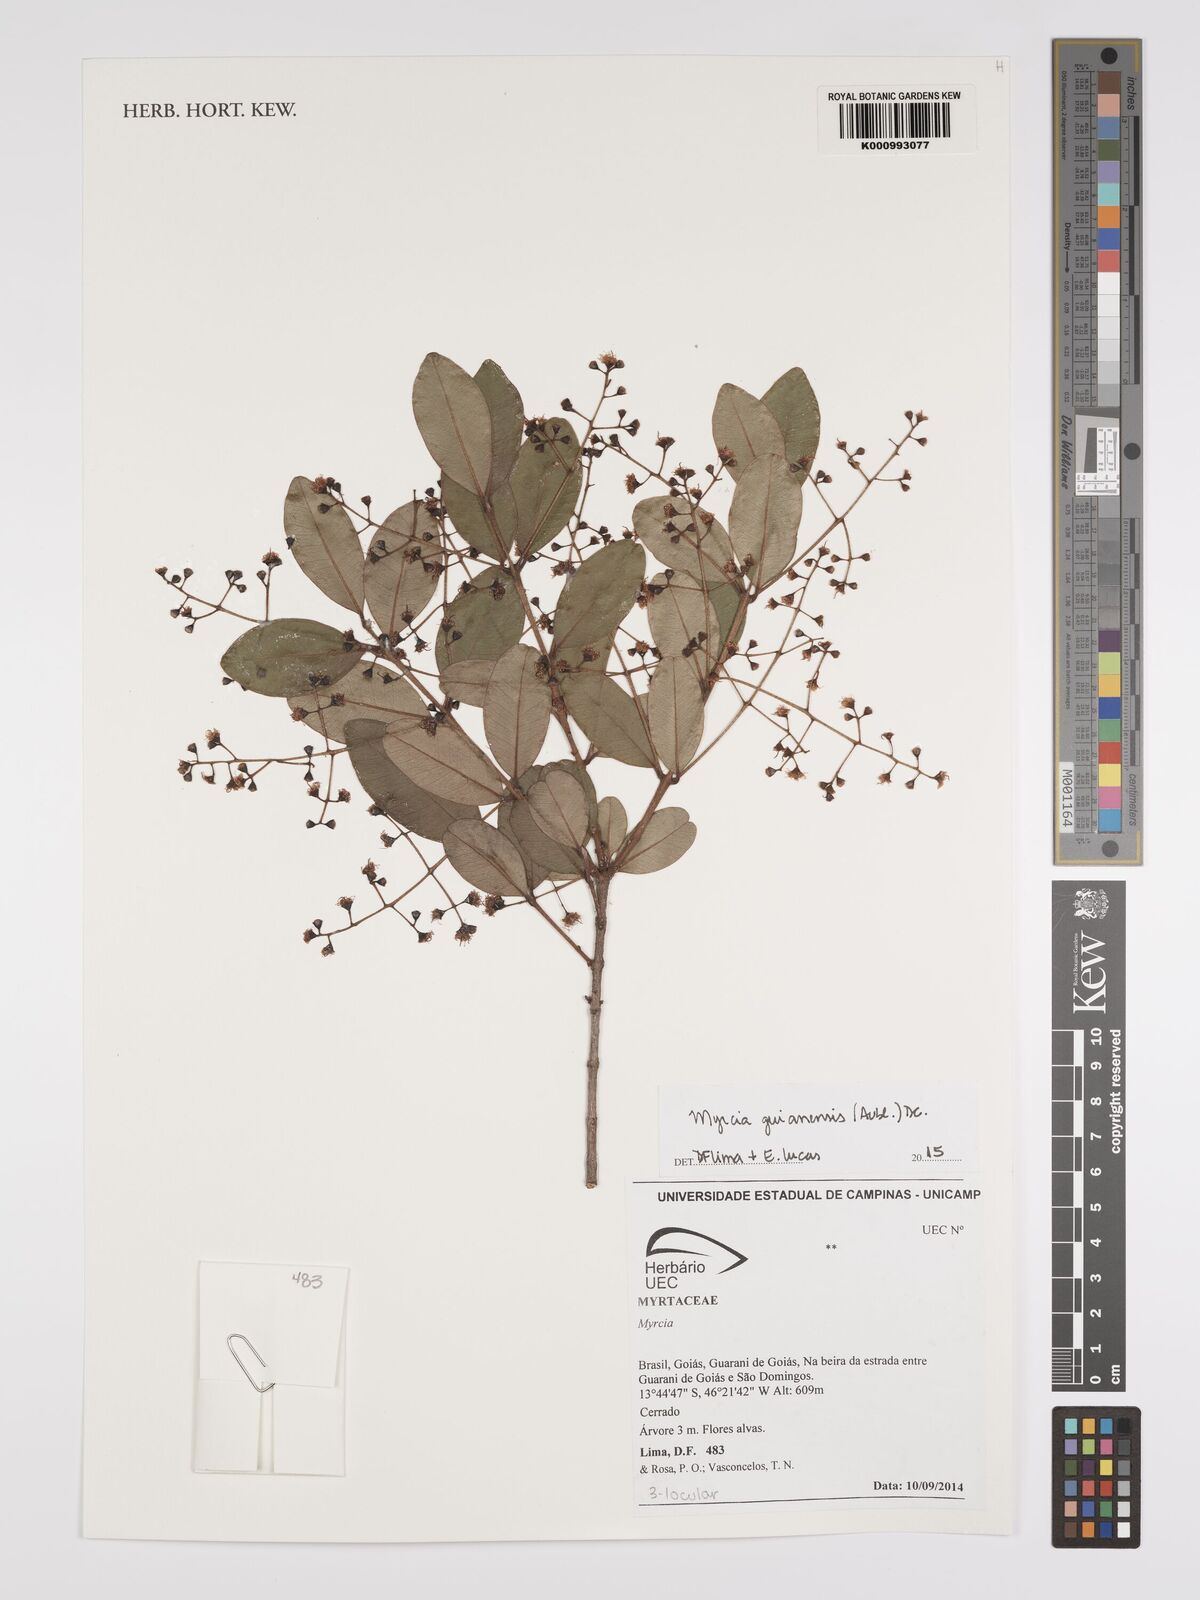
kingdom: Plantae
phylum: Tracheophyta
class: Magnoliopsida
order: Myrtales
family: Myrtaceae
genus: Myrcia
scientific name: Myrcia guianensis
